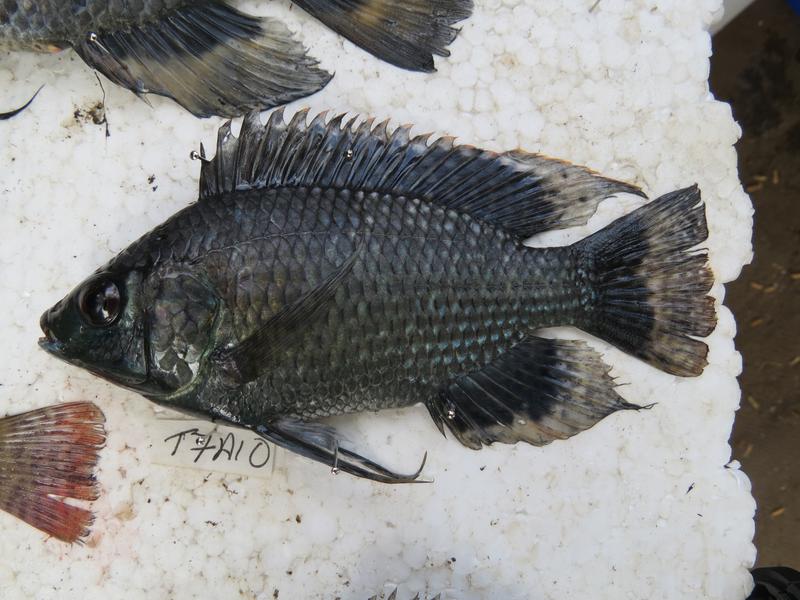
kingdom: Animalia
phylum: Chordata
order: Perciformes
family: Cichlidae
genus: Oreochromis
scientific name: Oreochromis leucostictus
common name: Blue spotted tilapia
